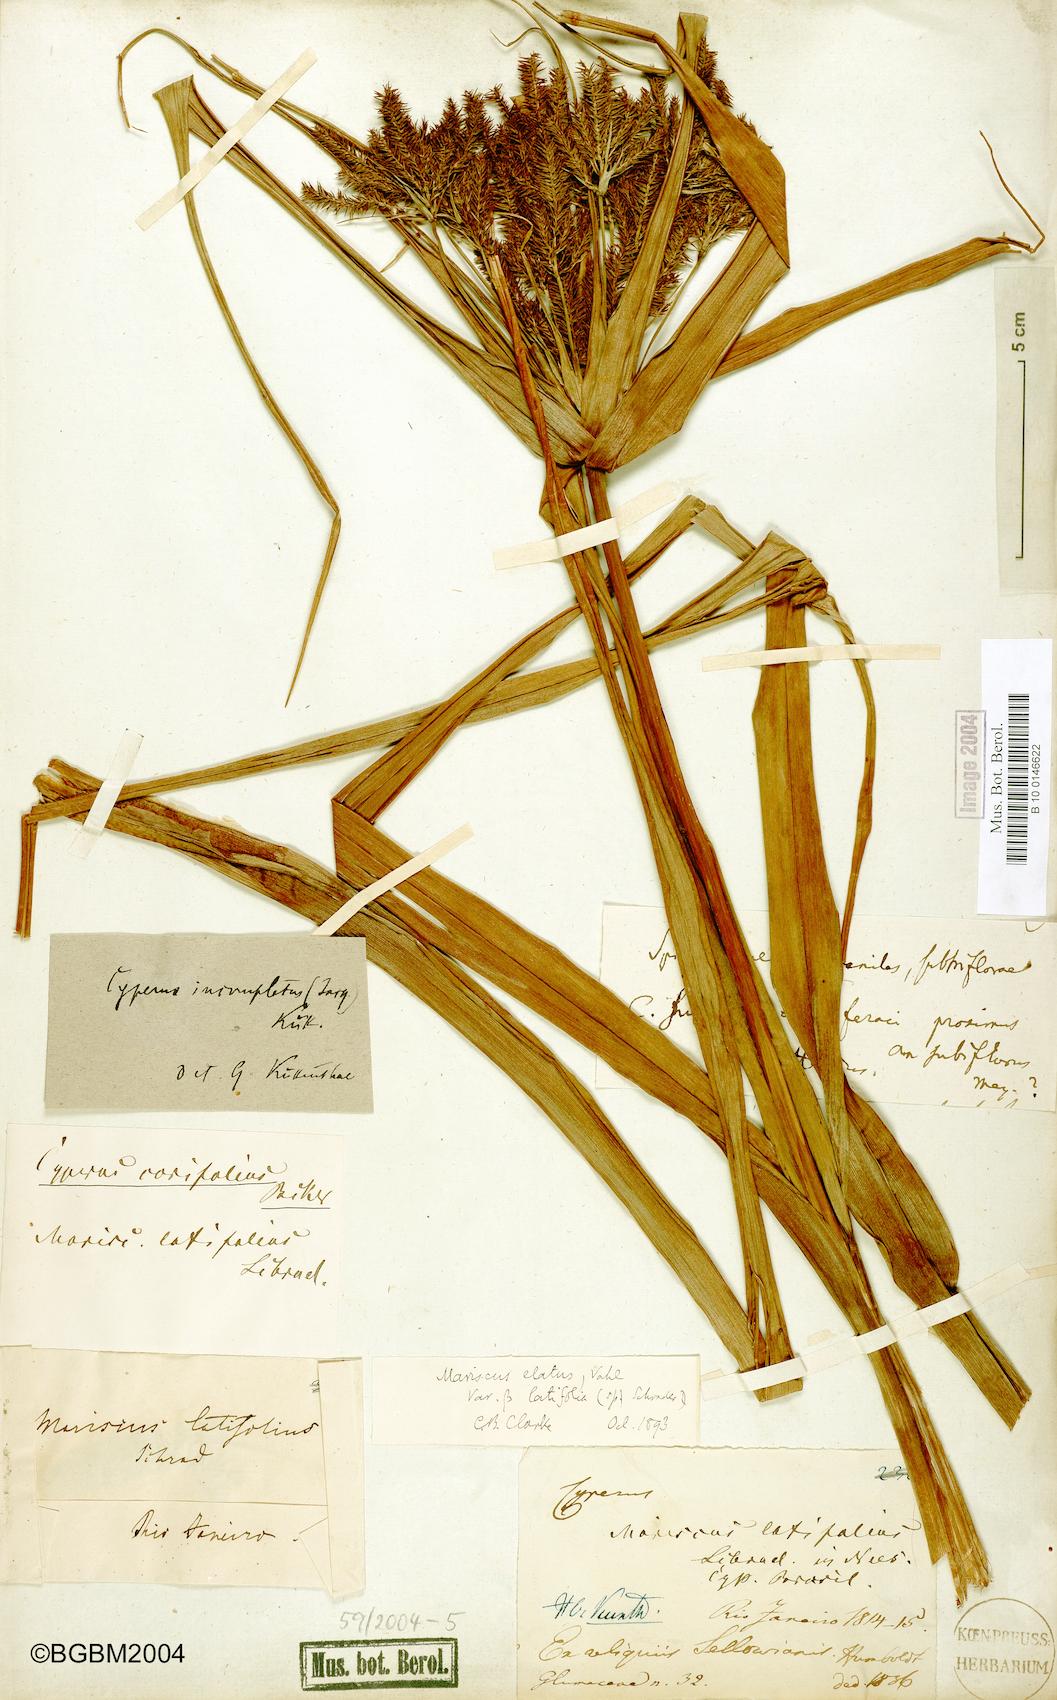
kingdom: Plantae
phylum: Tracheophyta
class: Liliopsida
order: Poales
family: Cyperaceae
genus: Cyperus
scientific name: Cyperus hermaphroditus
